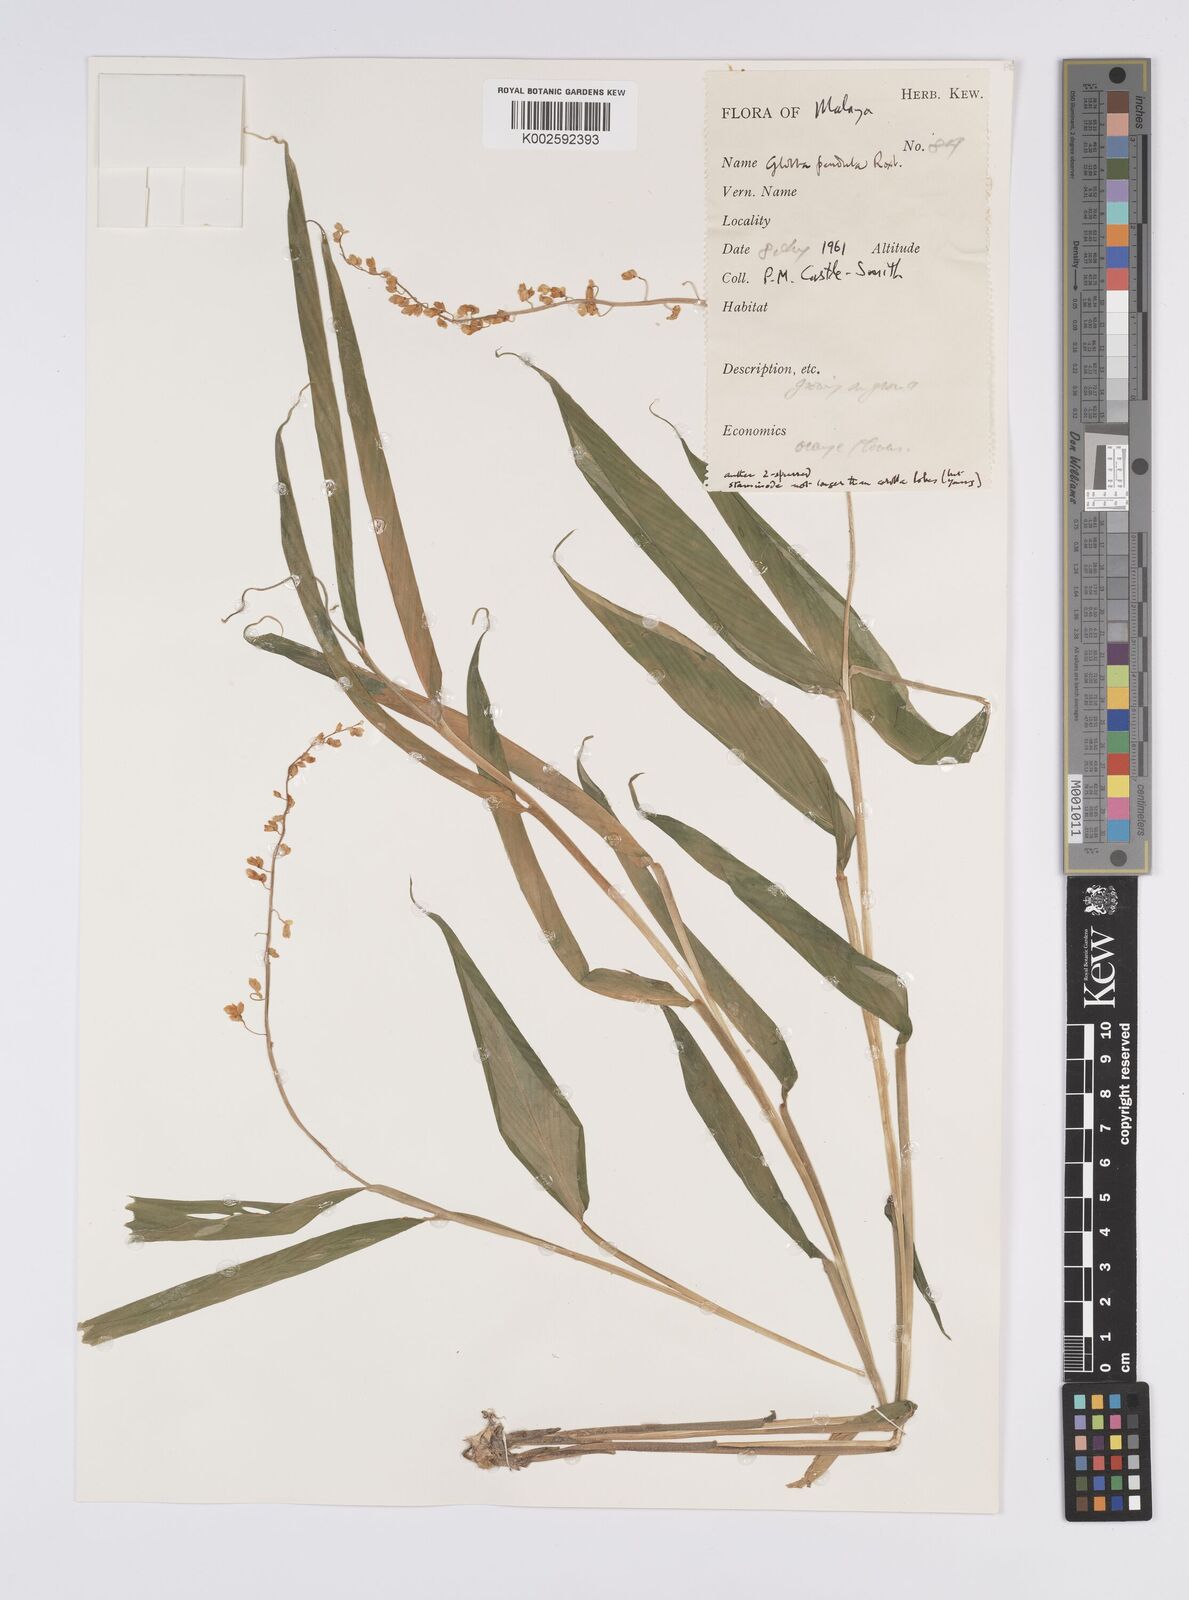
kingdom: Plantae
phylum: Tracheophyta
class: Liliopsida
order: Zingiberales
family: Zingiberaceae
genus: Globba
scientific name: Globba pendula
